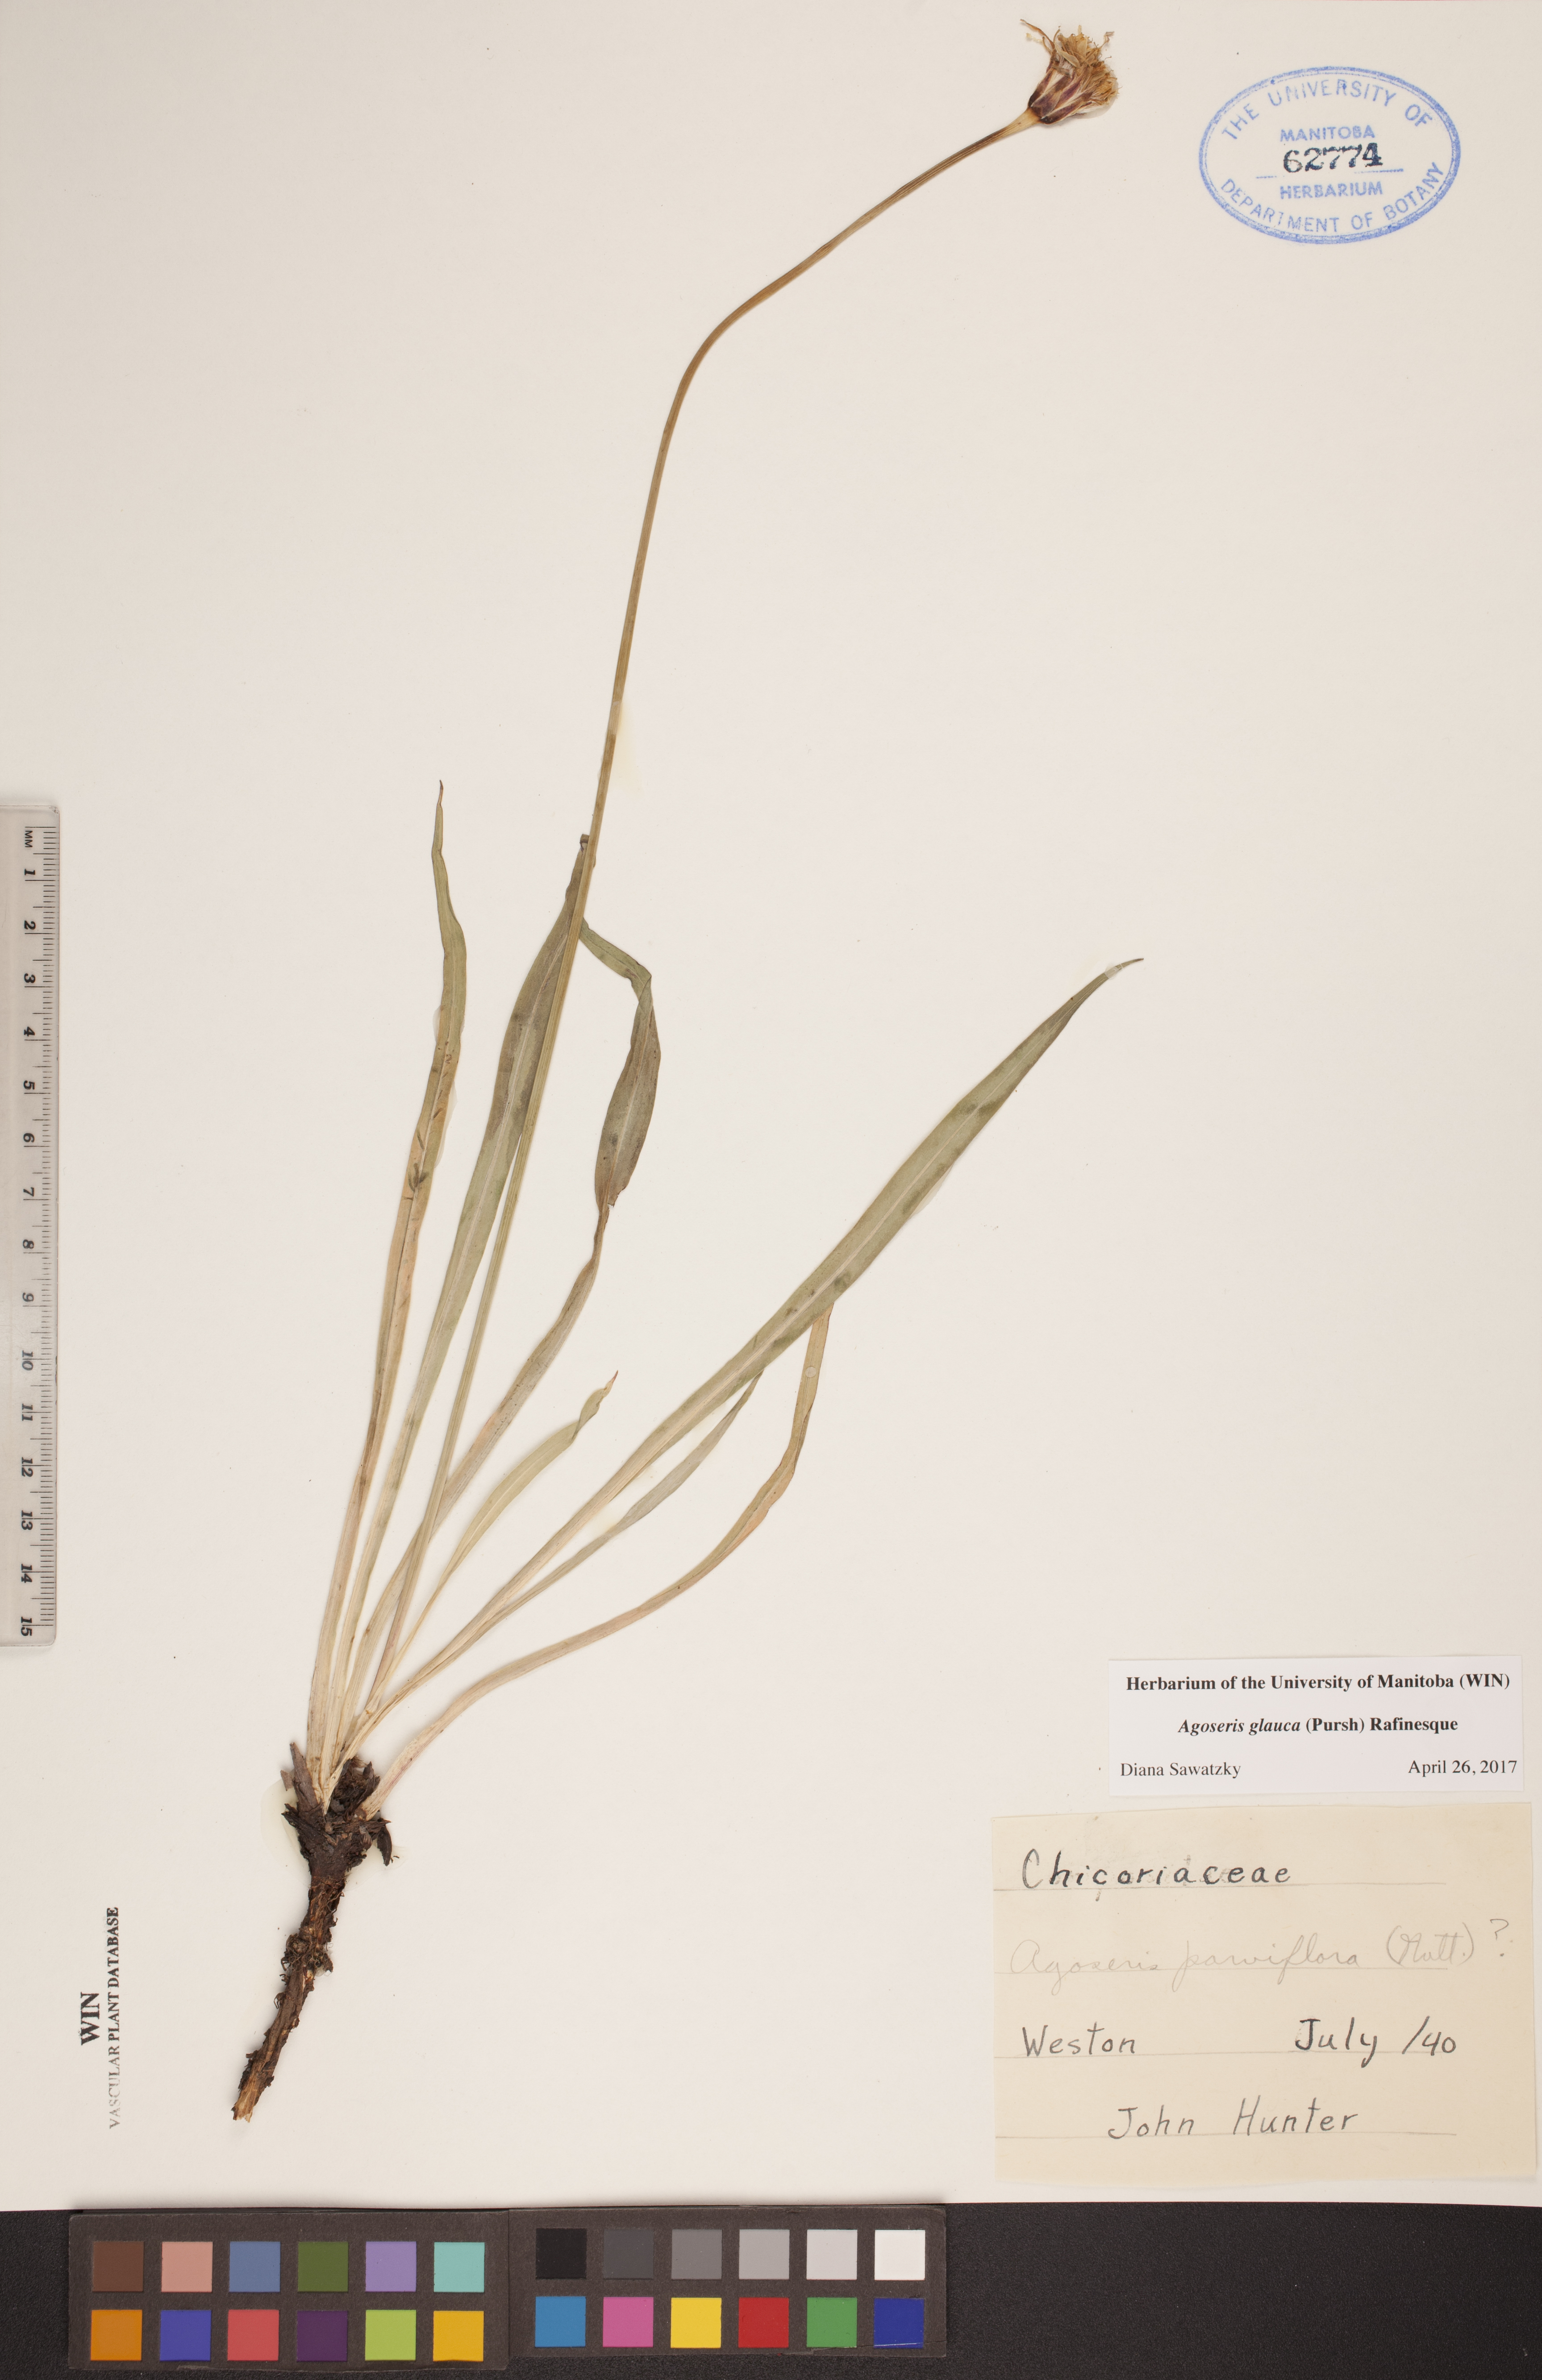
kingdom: Plantae
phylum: Tracheophyta
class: Magnoliopsida
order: Asterales
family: Asteraceae
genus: Agoseris
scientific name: Agoseris glauca
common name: Prairie agoseris
